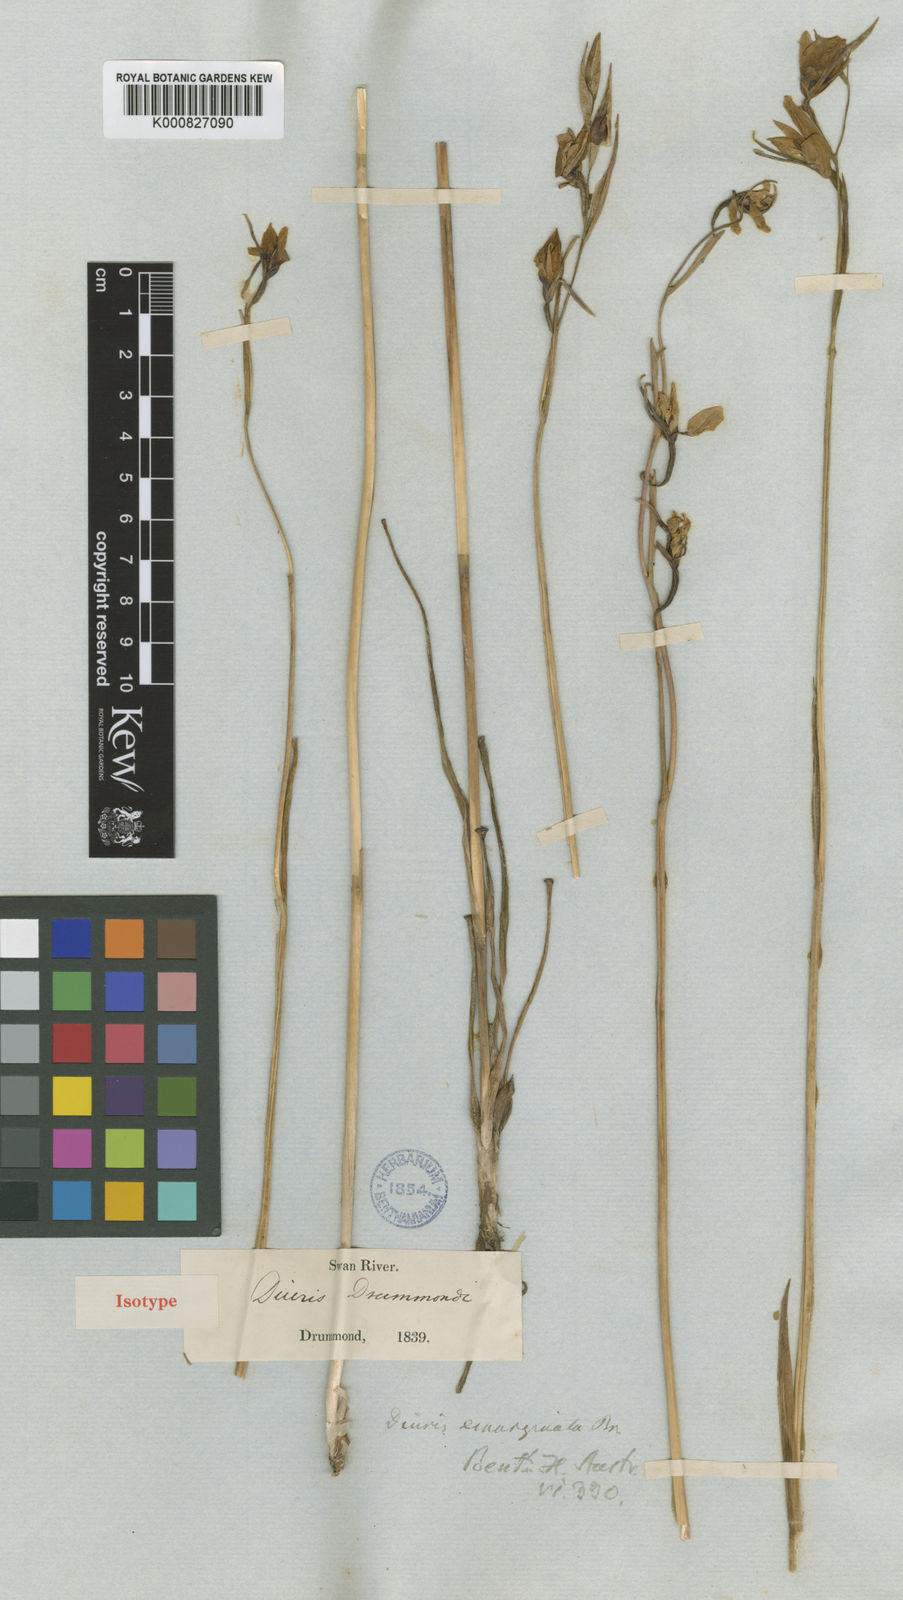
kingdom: Plantae
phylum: Tracheophyta
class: Liliopsida
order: Asparagales
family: Orchidaceae
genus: Diuris
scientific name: Diuris emarginata
